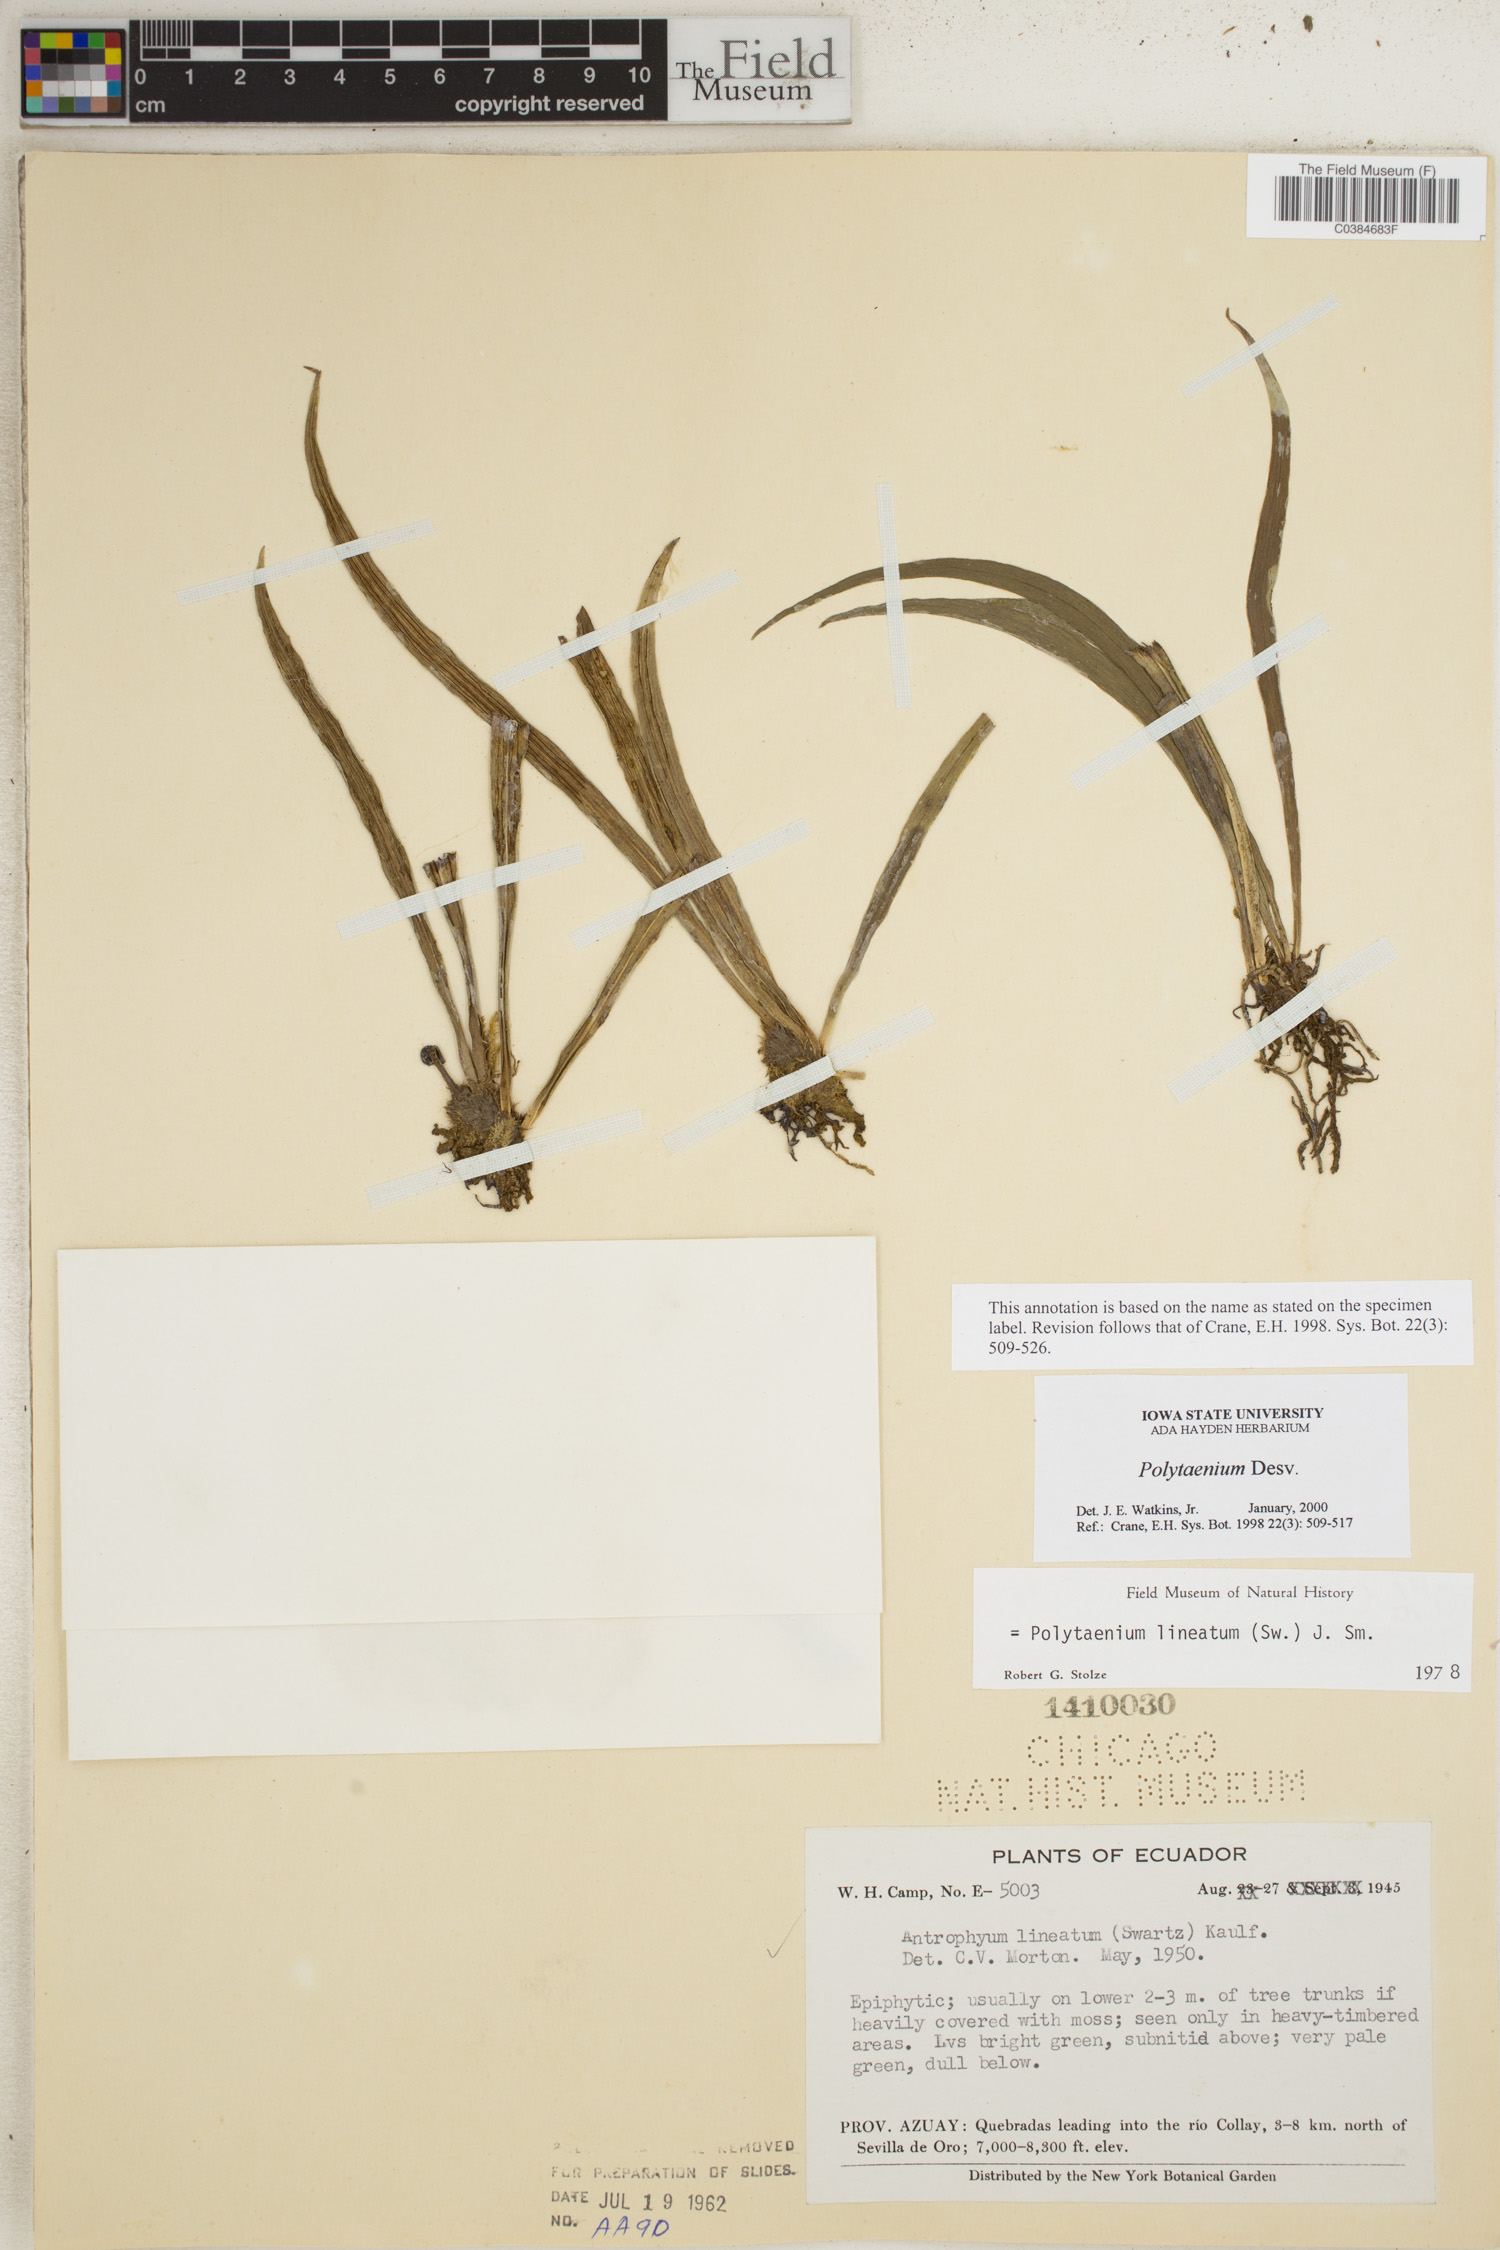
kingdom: Plantae
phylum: Tracheophyta
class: Polypodiopsida
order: Polypodiales
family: Pteridaceae
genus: Polytaenium
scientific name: Polytaenium
